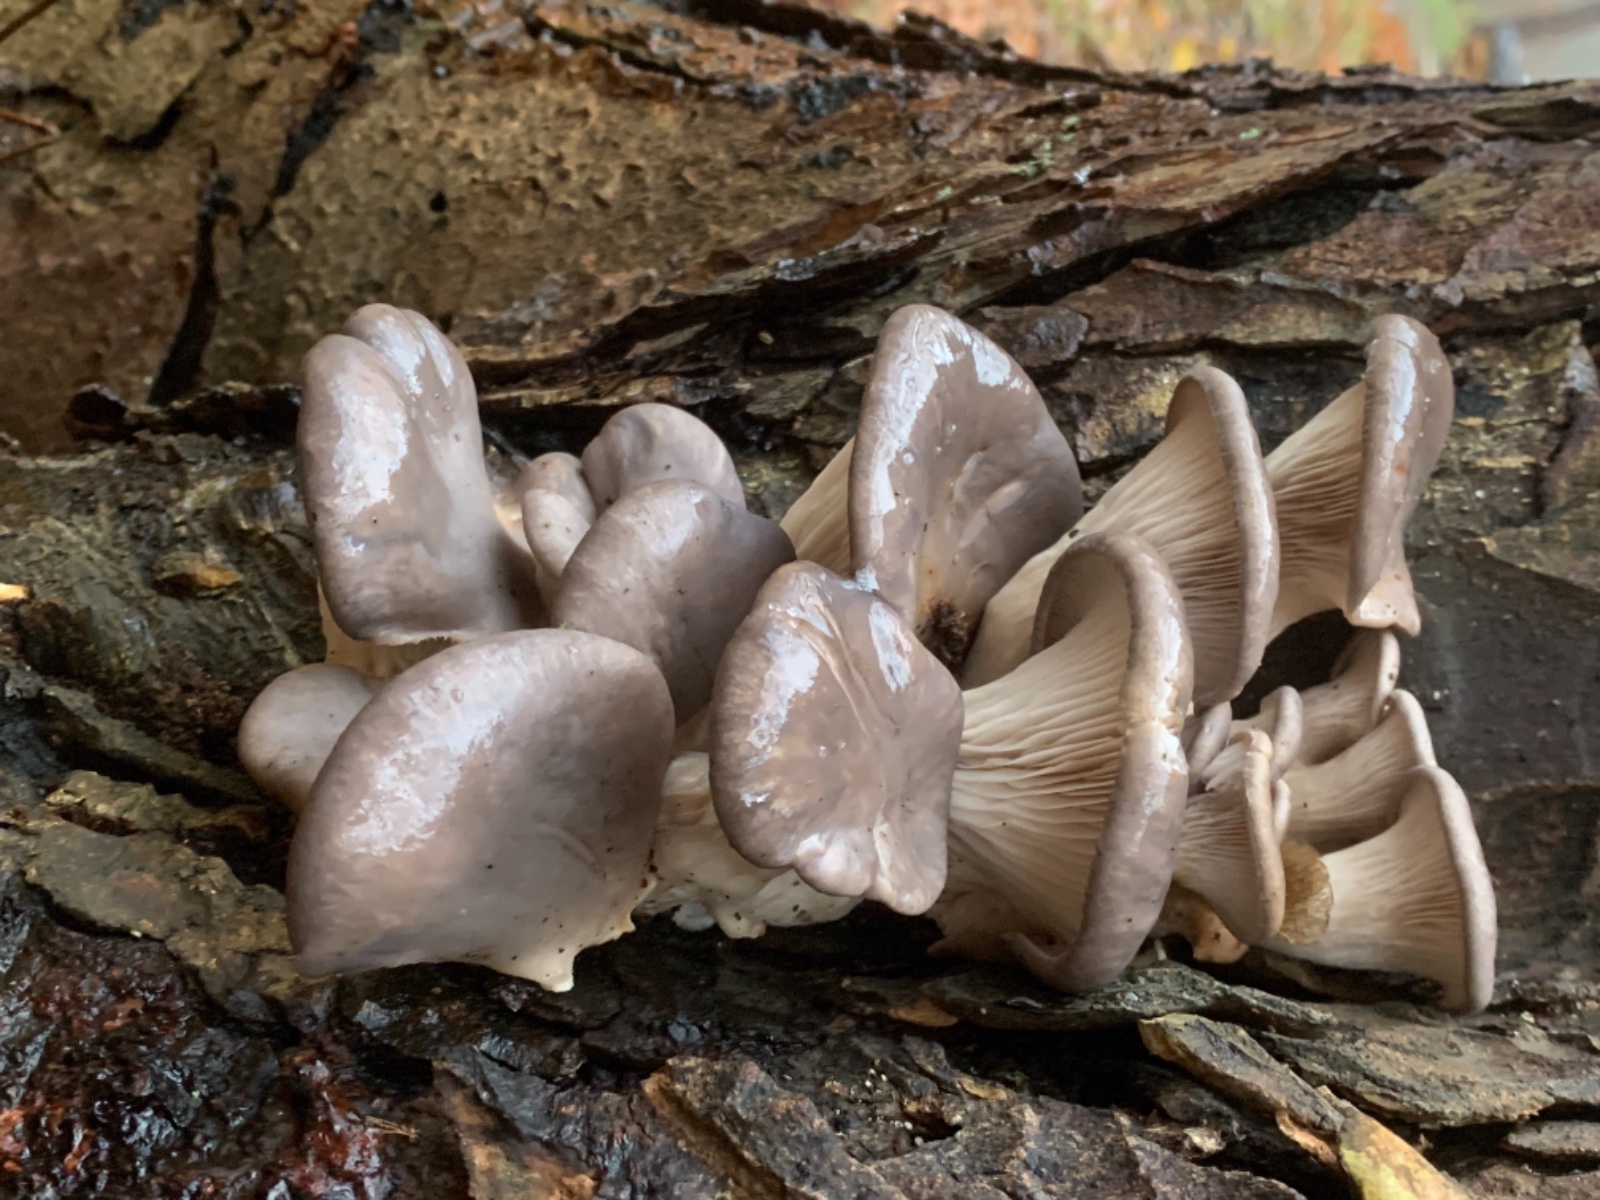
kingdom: Fungi
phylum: Basidiomycota
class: Agaricomycetes
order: Agaricales
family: Pleurotaceae
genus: Pleurotus
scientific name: Pleurotus ostreatus
